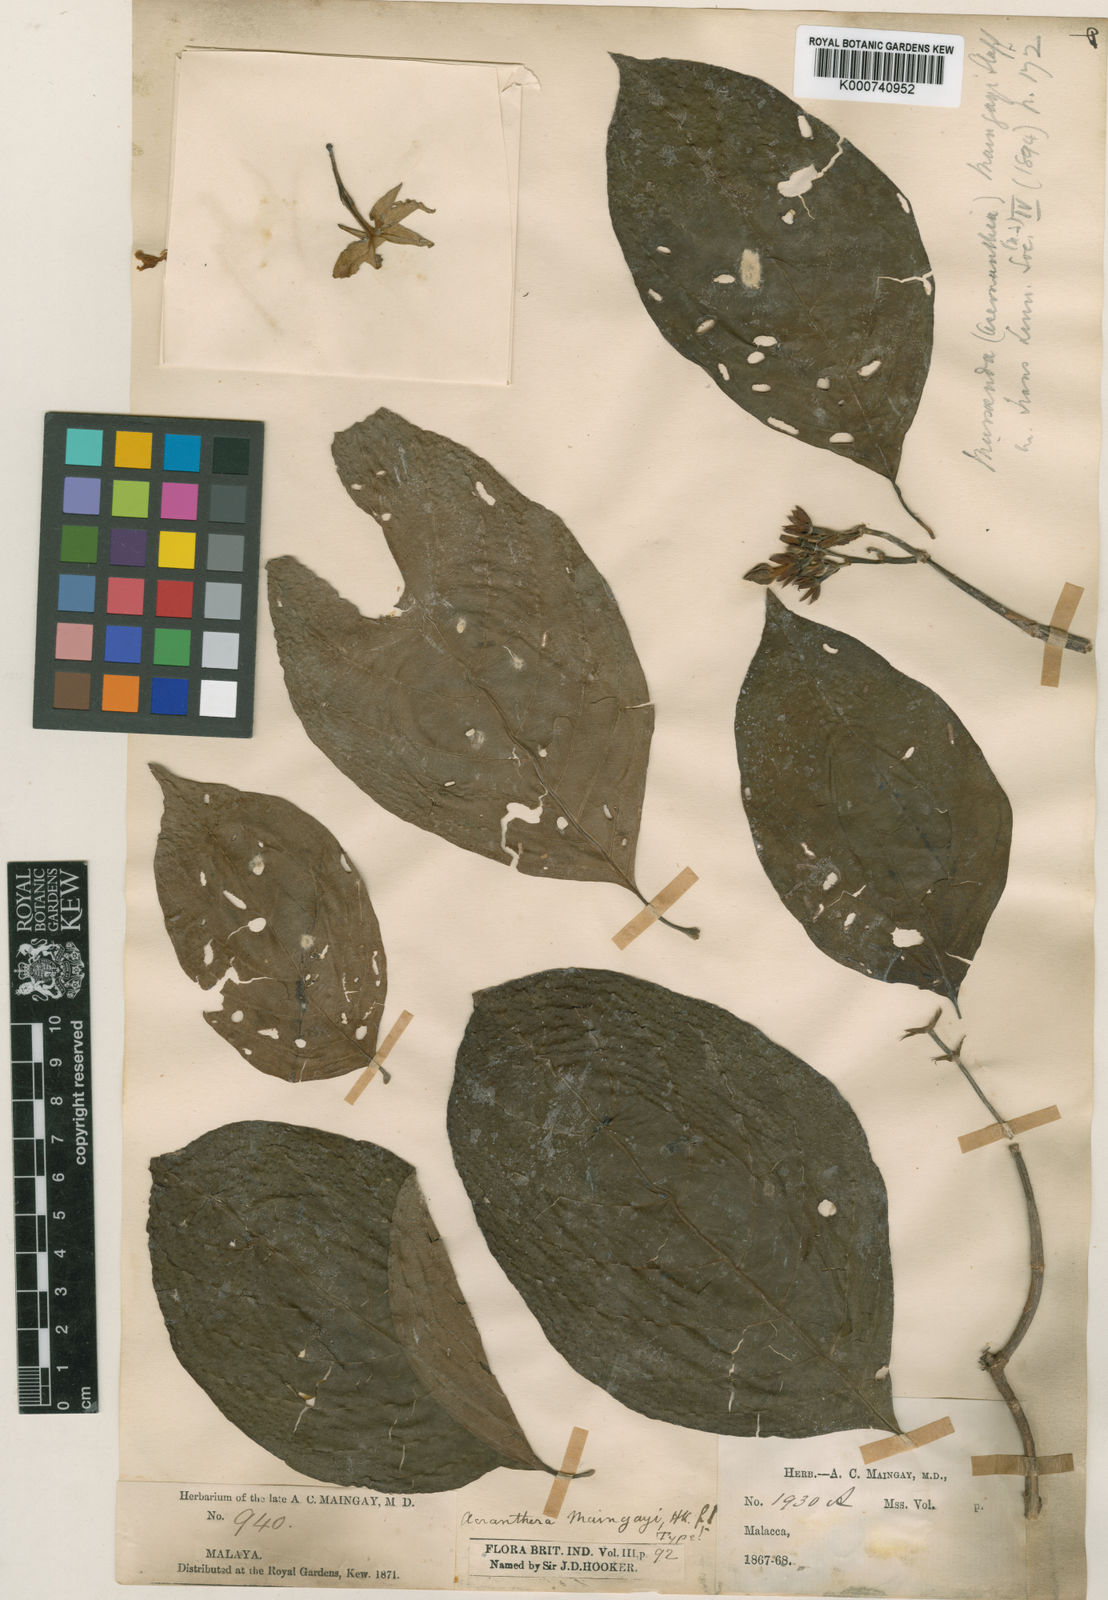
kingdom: Plantae
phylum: Tracheophyta
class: Magnoliopsida
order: Gentianales
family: Rubiaceae
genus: Mussaenda
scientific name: Mussaenda maingayi
